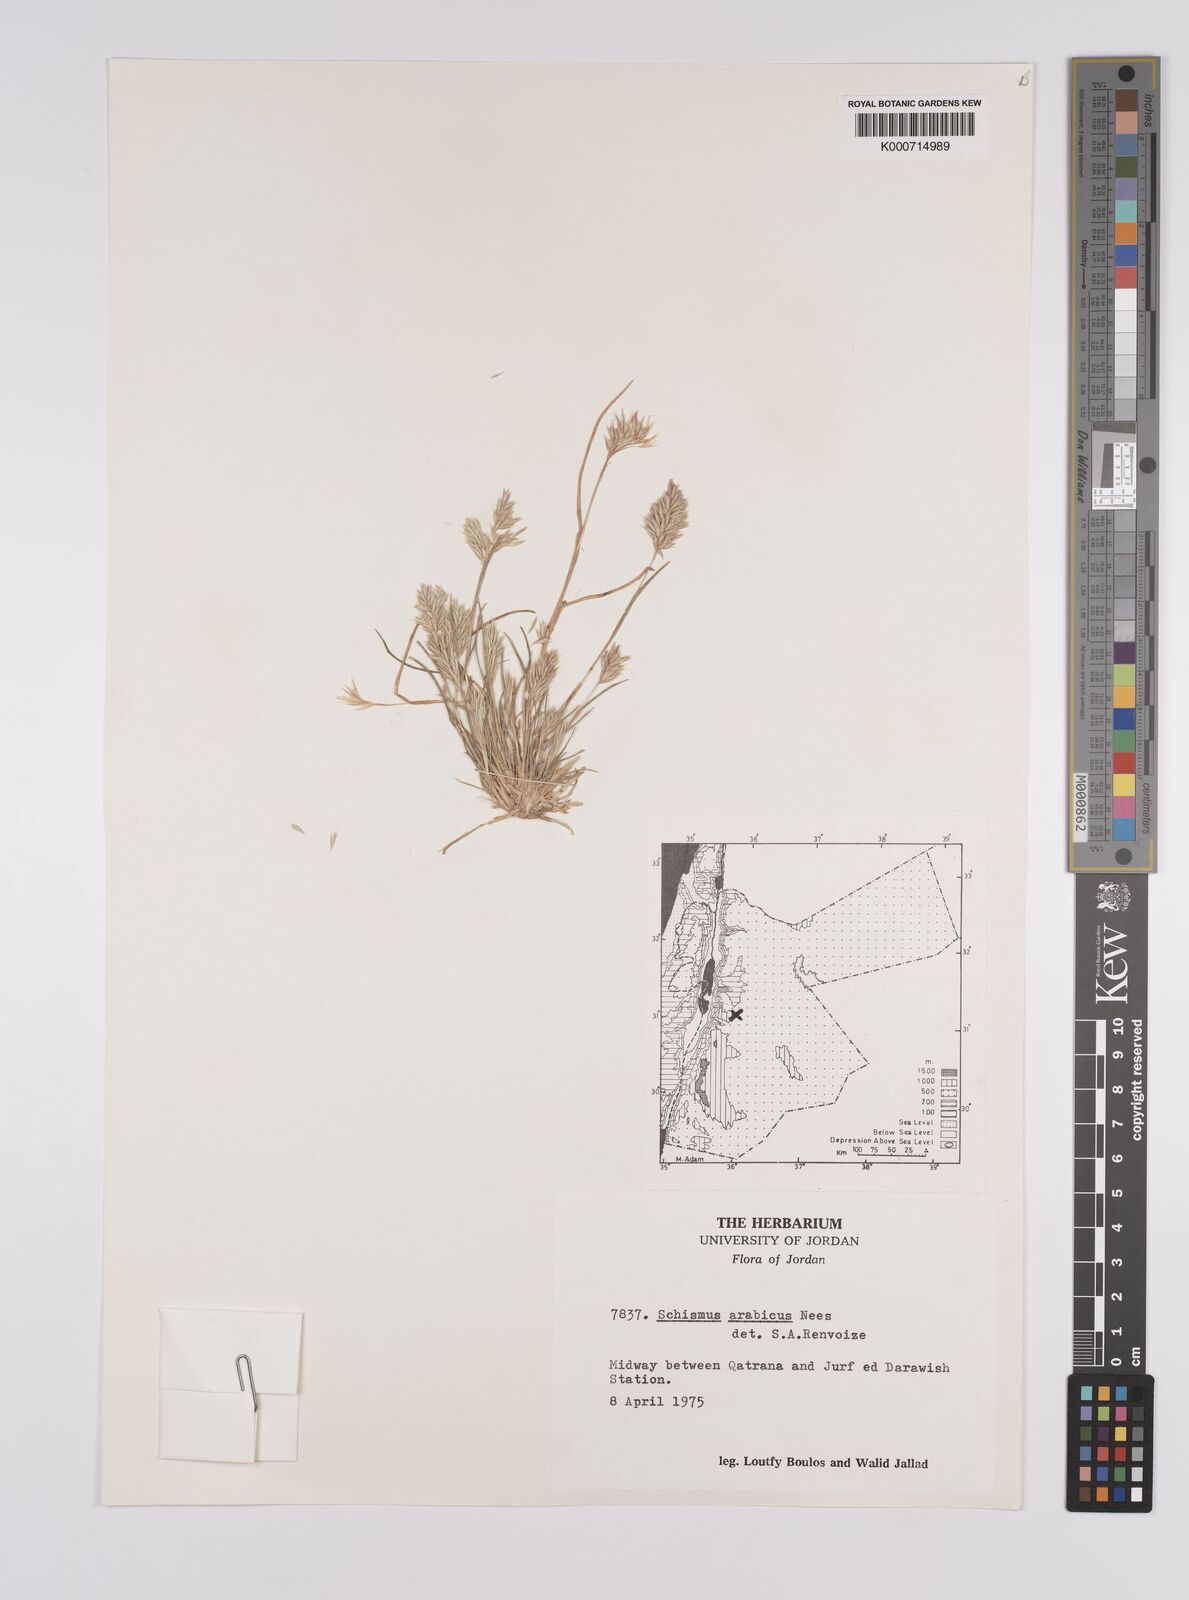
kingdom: Plantae
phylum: Tracheophyta
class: Liliopsida
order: Poales
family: Poaceae
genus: Schismus
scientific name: Schismus arabicus
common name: Arabian schismus
